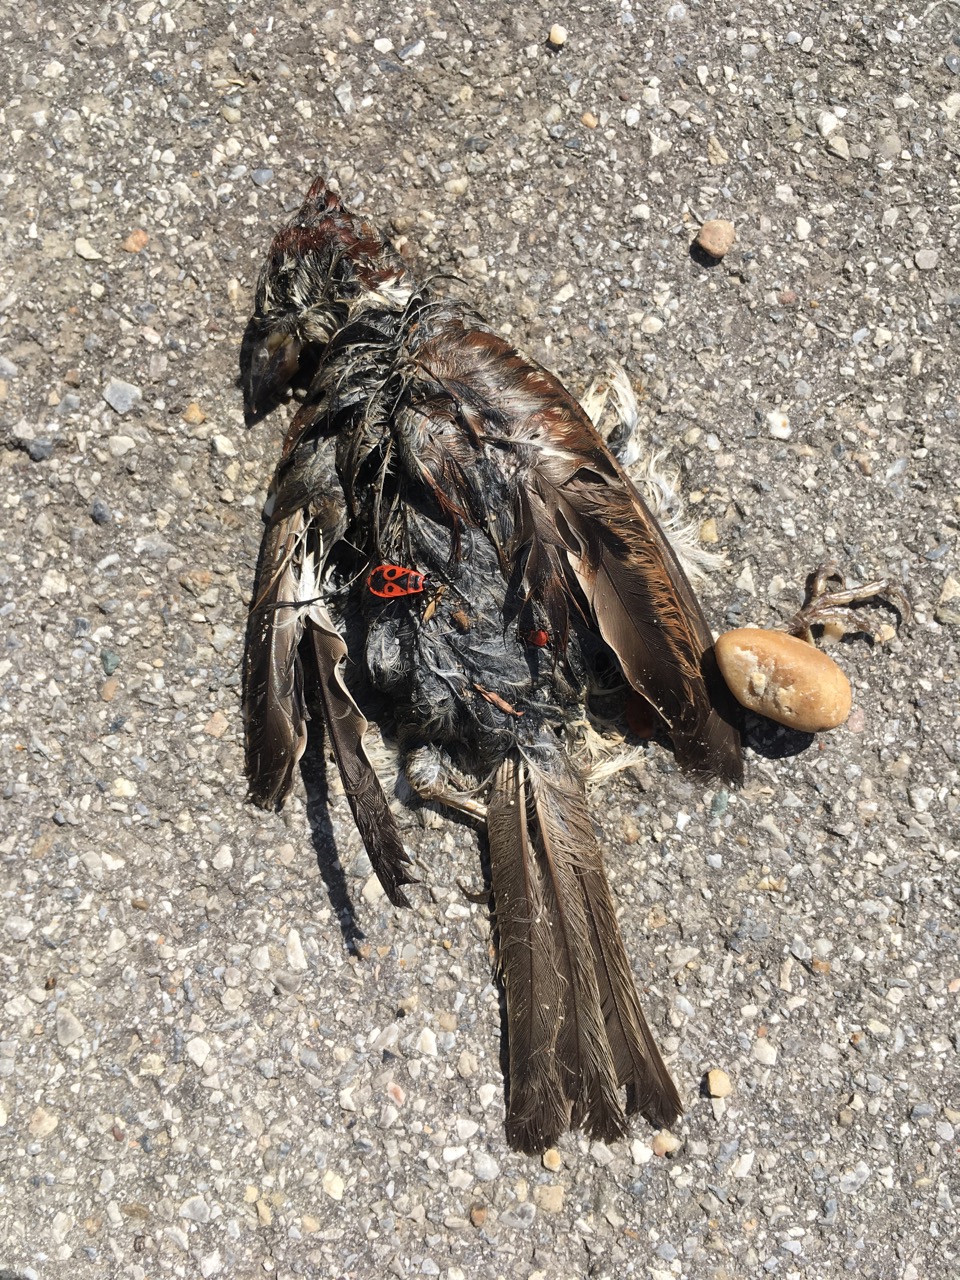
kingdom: Animalia
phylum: Chordata
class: Aves
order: Passeriformes
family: Passeridae
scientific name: Passeridae
